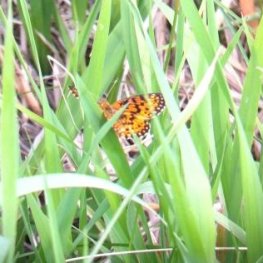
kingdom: Animalia
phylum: Arthropoda
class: Insecta
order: Lepidoptera
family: Nymphalidae
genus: Boloria
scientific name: Boloria selene
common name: Silver-bordered Fritillary
